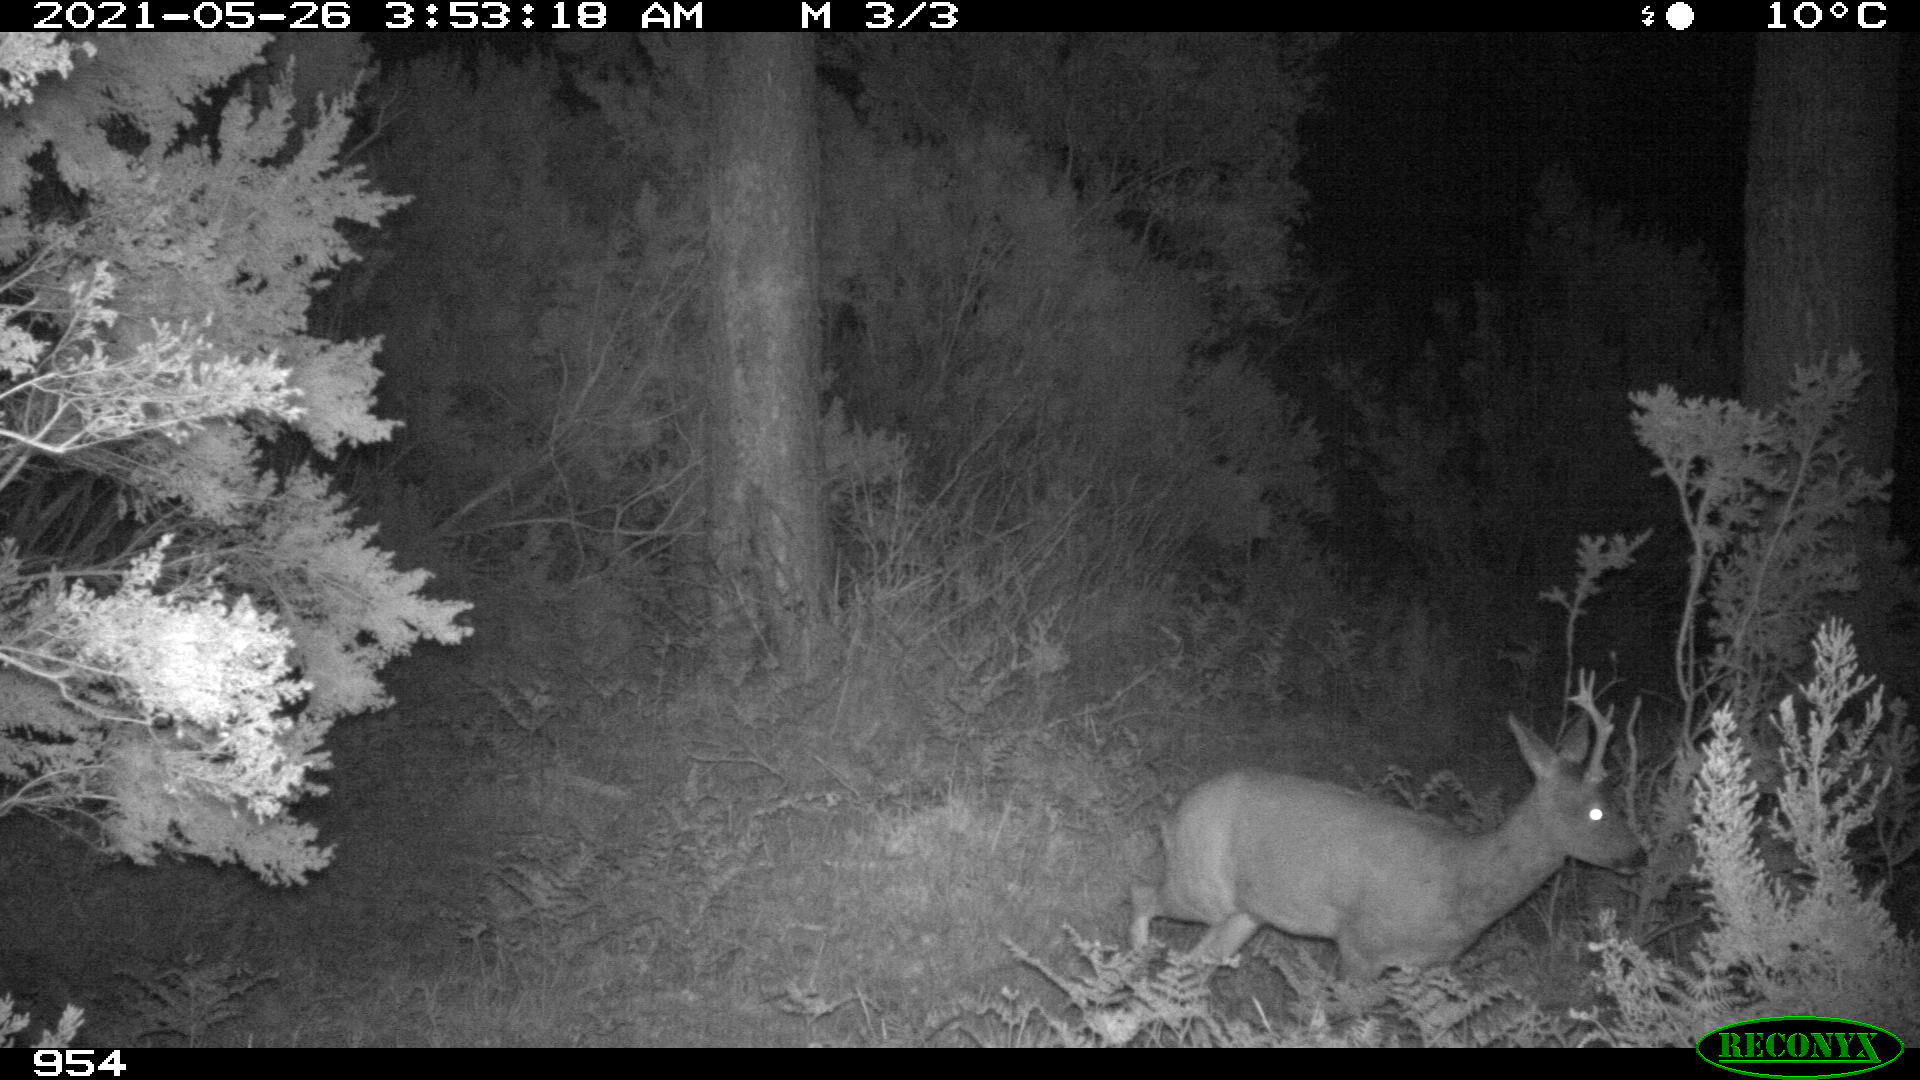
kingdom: Animalia
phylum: Chordata
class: Mammalia
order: Artiodactyla
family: Cervidae
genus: Capreolus
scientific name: Capreolus capreolus
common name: Western roe deer
